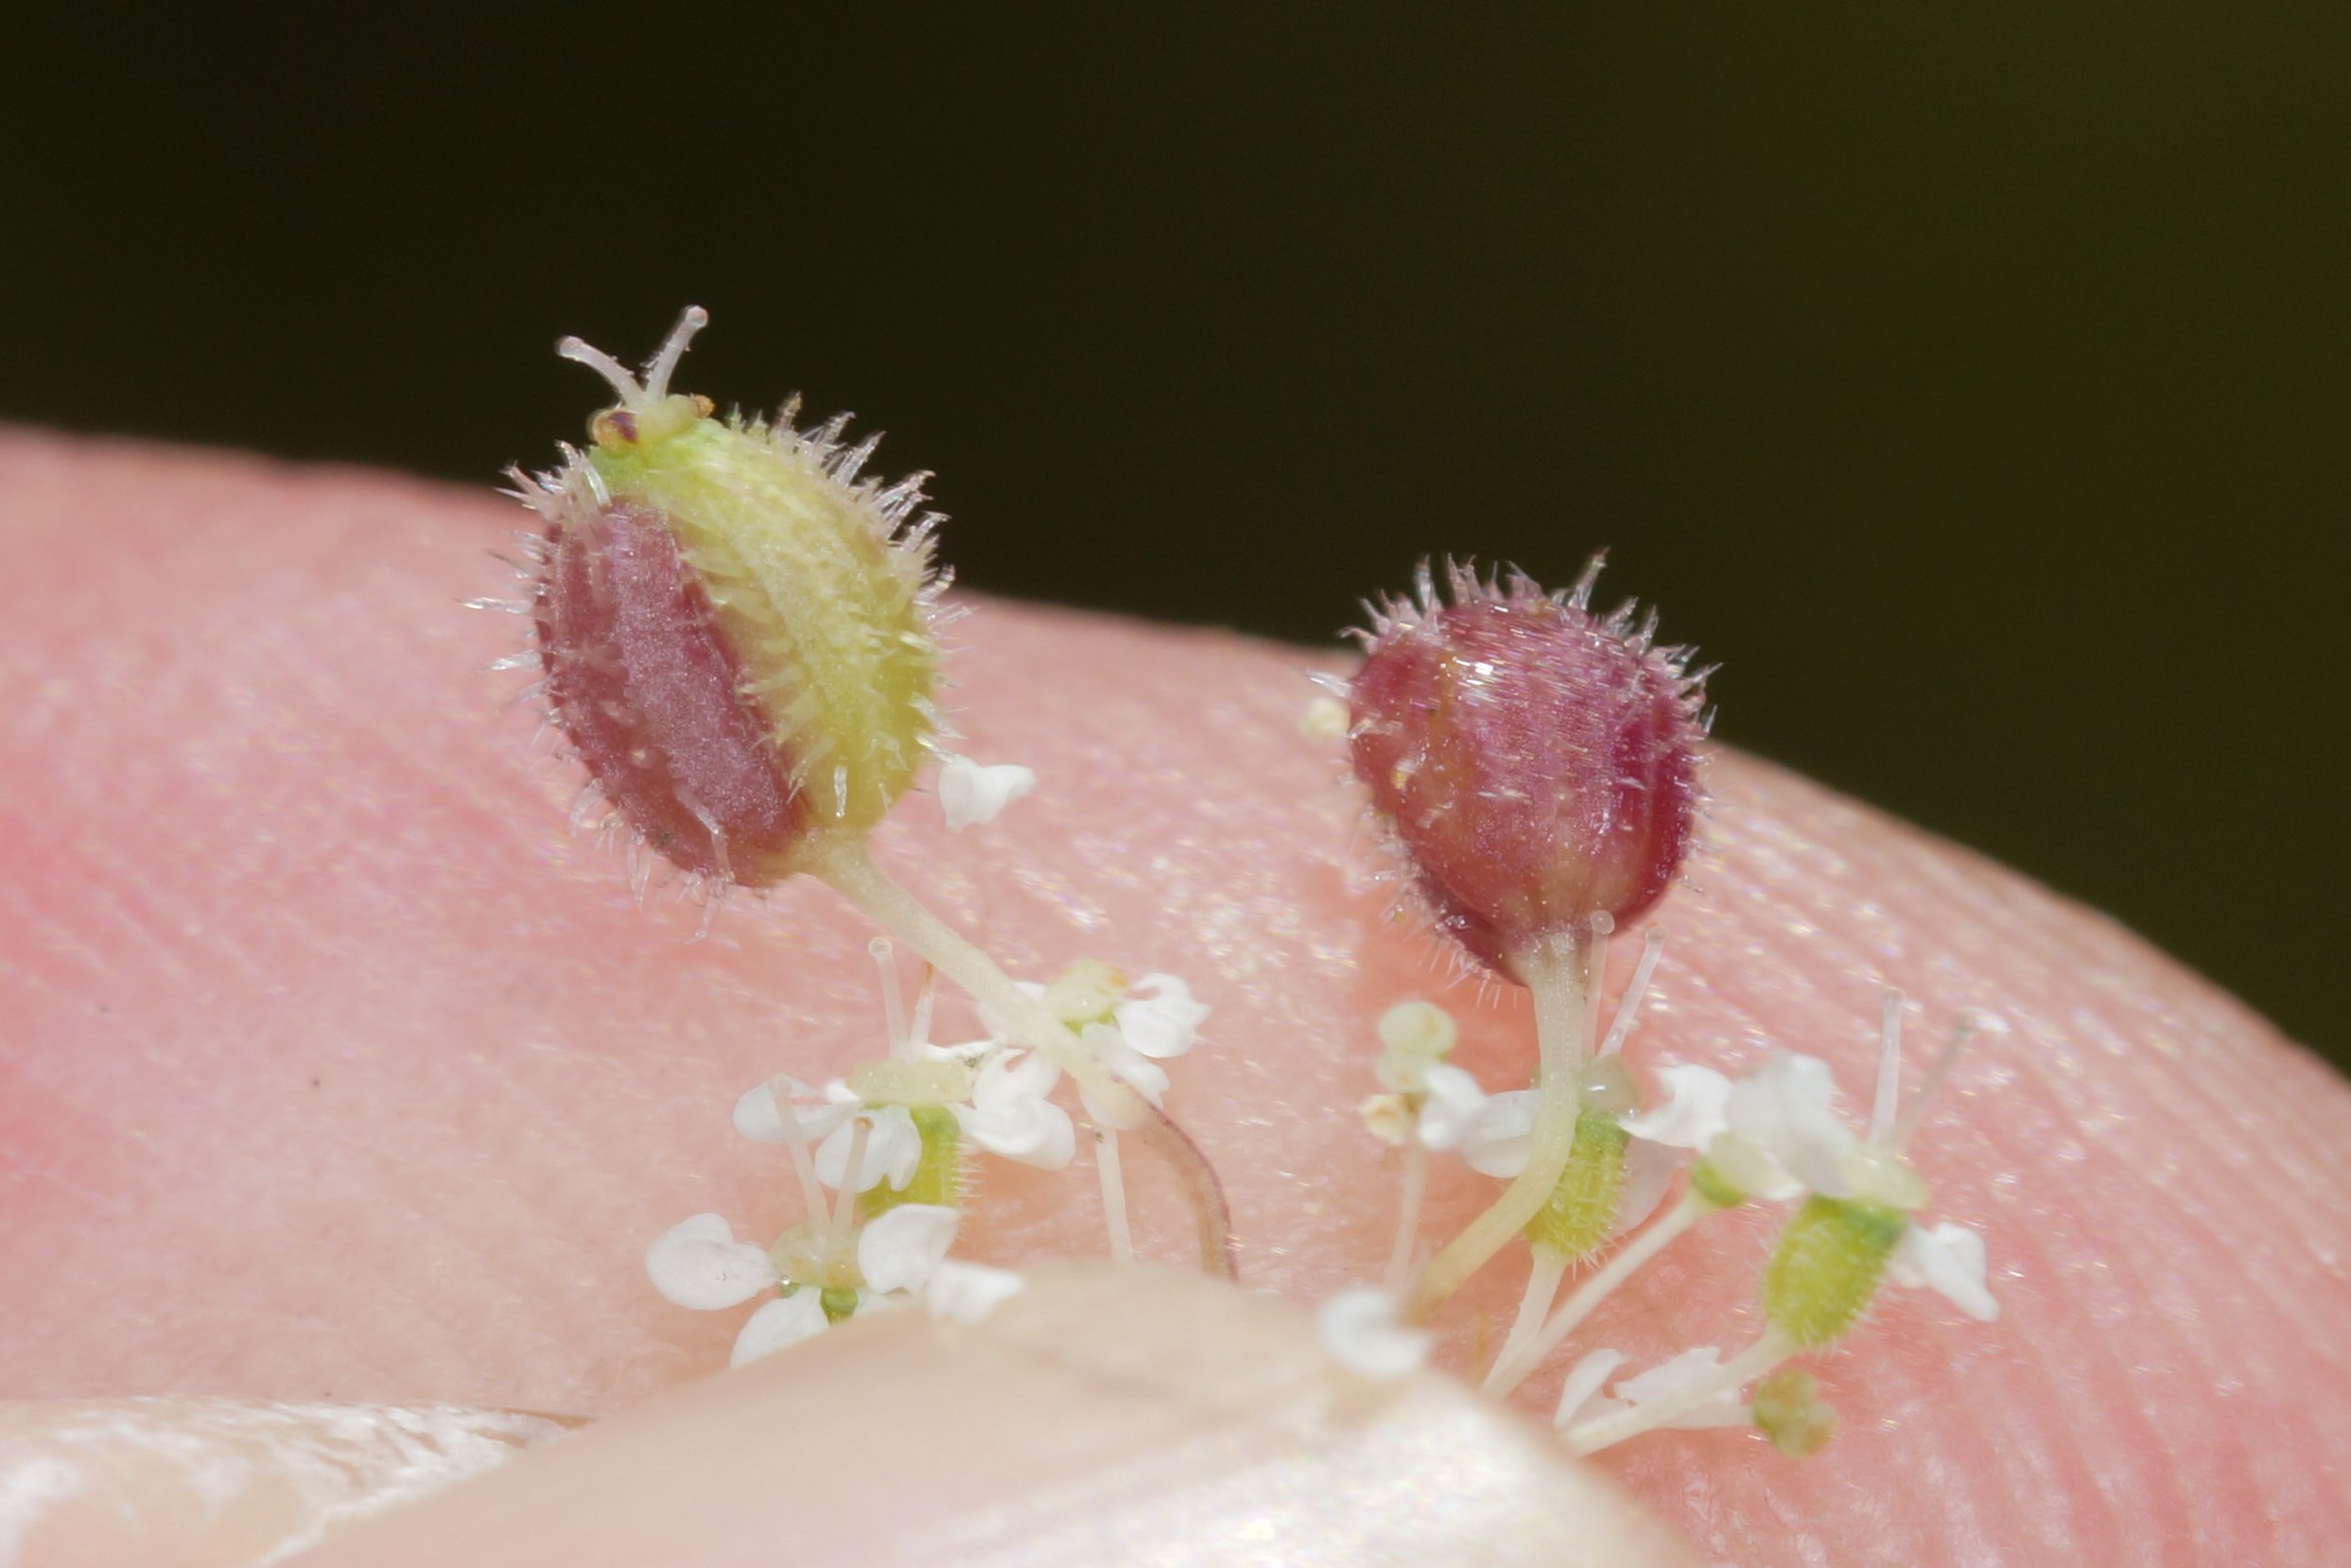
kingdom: Animalia
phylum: Arthropoda
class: Insecta
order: Diptera
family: Cecidomyiidae
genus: Kiefferia
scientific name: Kiefferia pericarpiicola
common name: Gulerodsgalmyg
